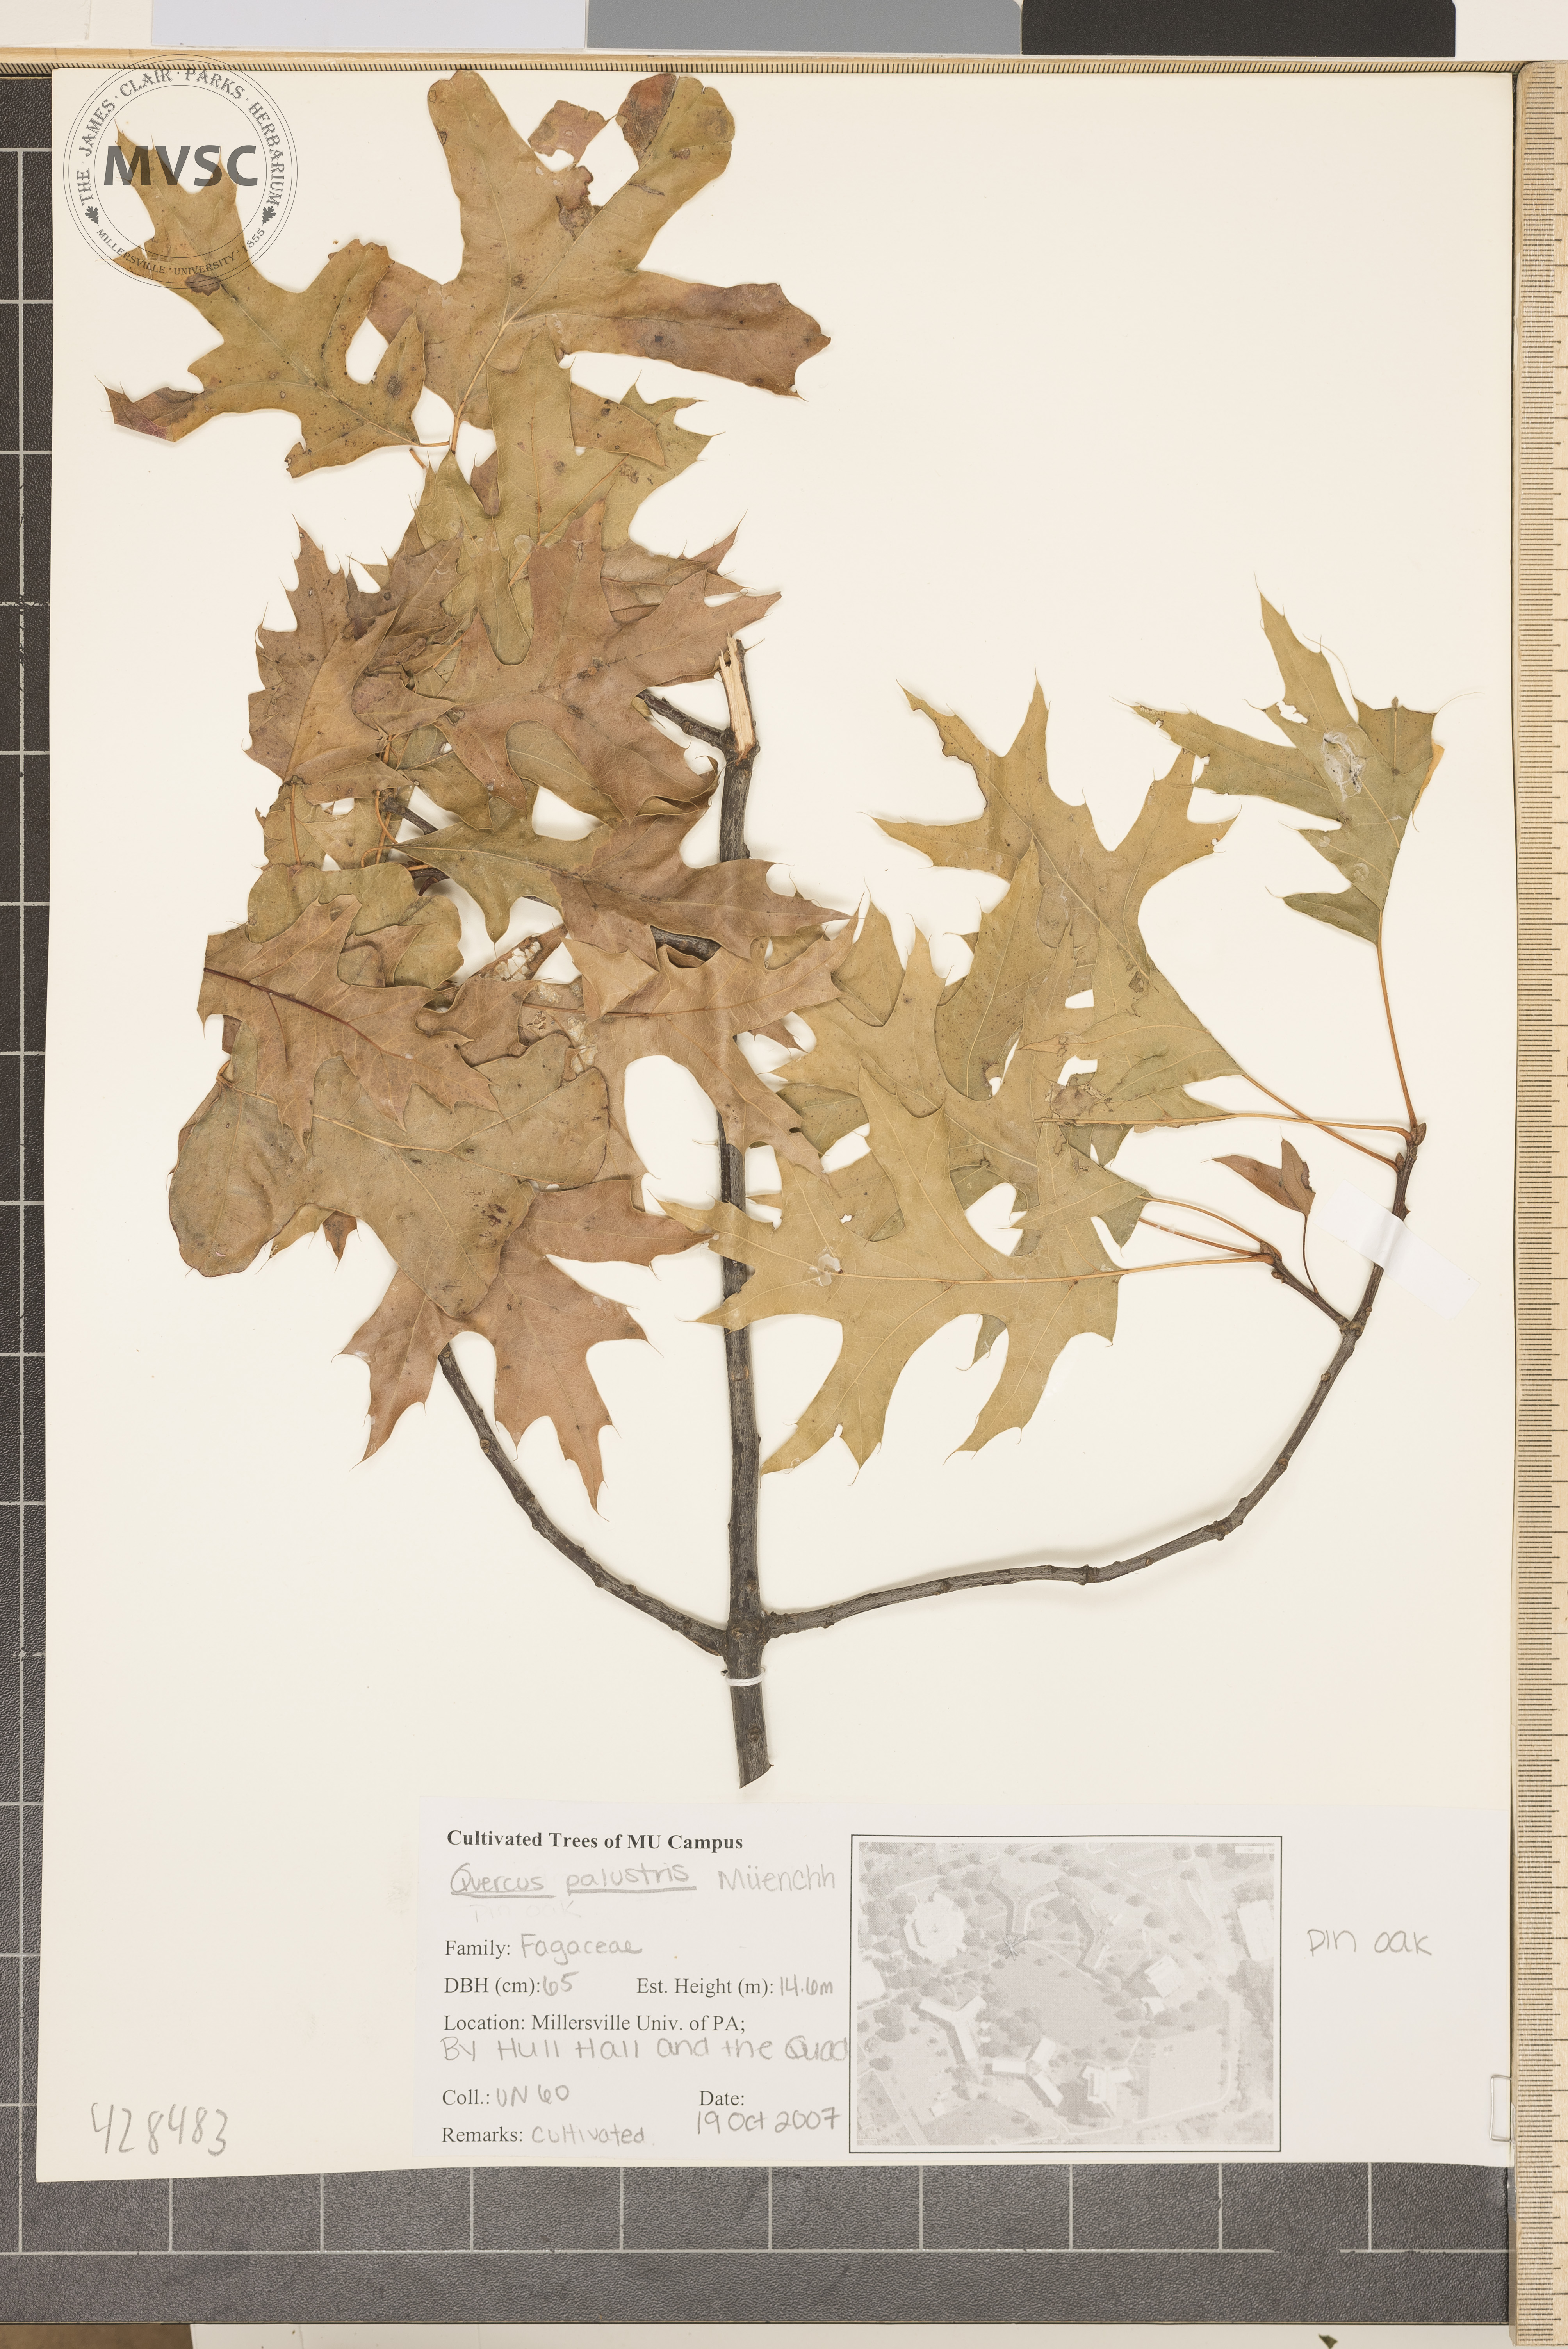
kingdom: Plantae
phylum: Tracheophyta
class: Magnoliopsida
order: Fagales
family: Fagaceae
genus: Quercus
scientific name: Quercus palustris
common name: Pin Oak
